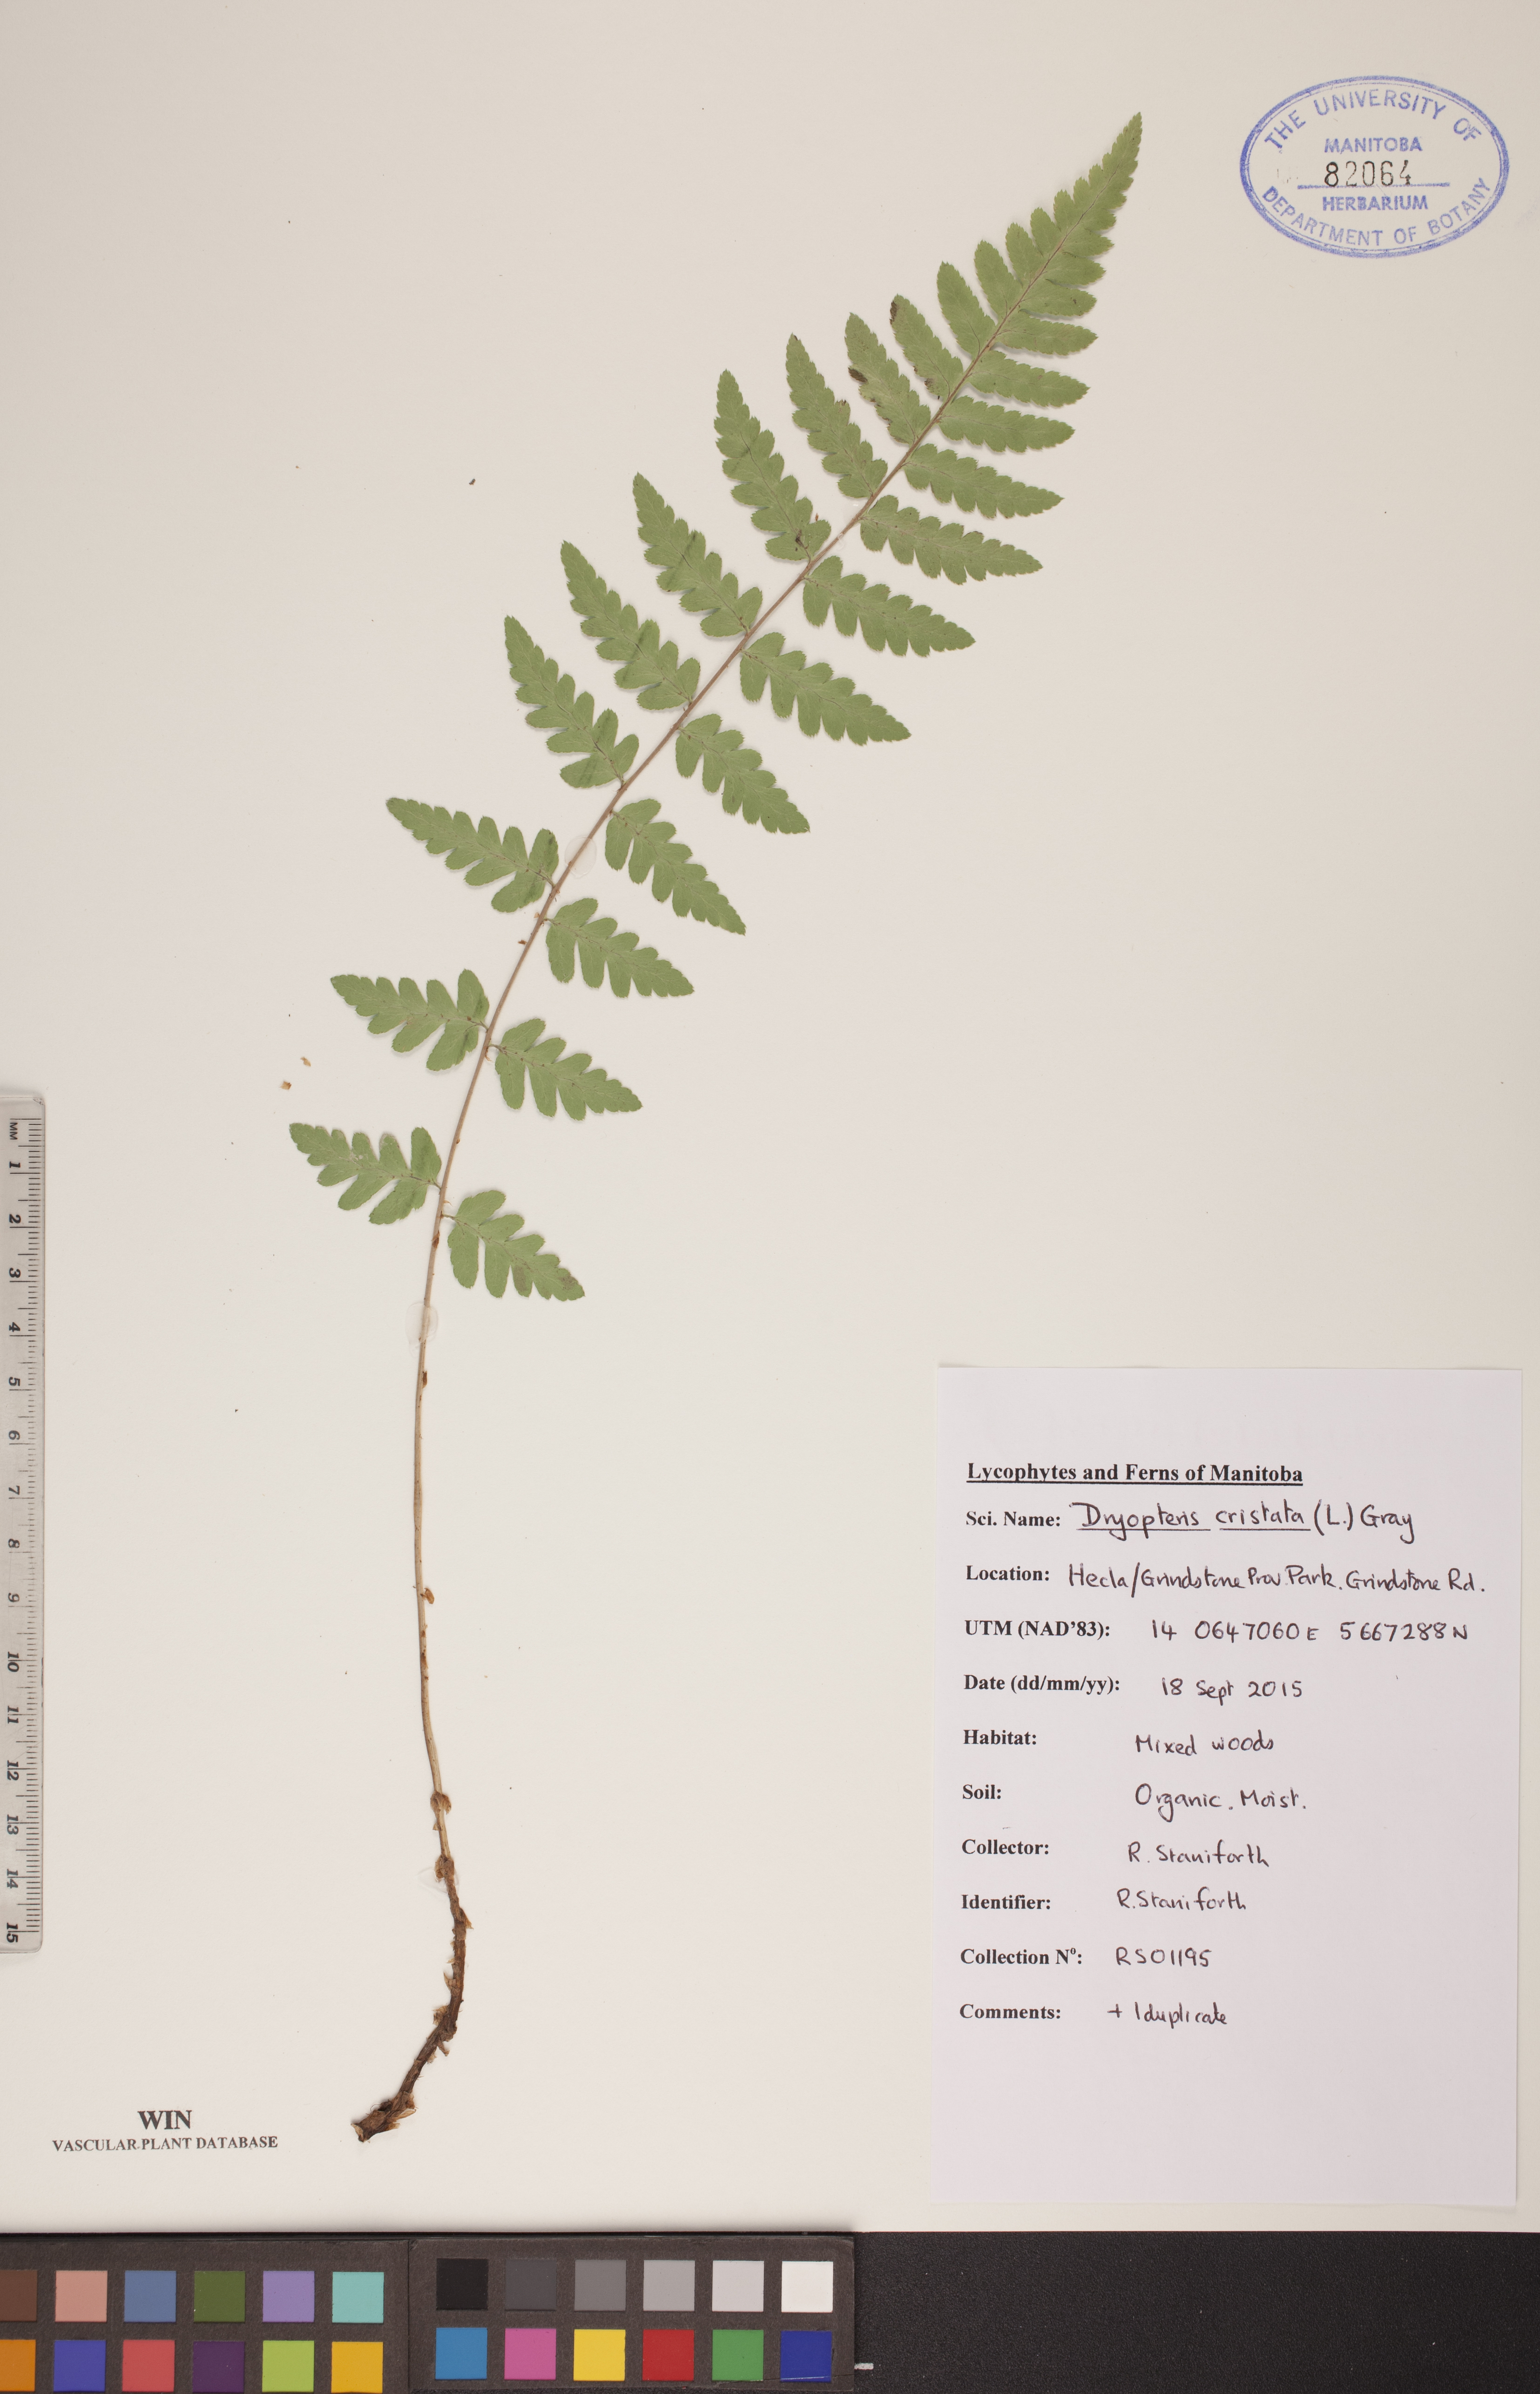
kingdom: Plantae
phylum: Tracheophyta
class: Polypodiopsida
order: Polypodiales
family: Dryopteridaceae
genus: Dryopteris
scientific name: Dryopteris cristata
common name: Crested wood fern
